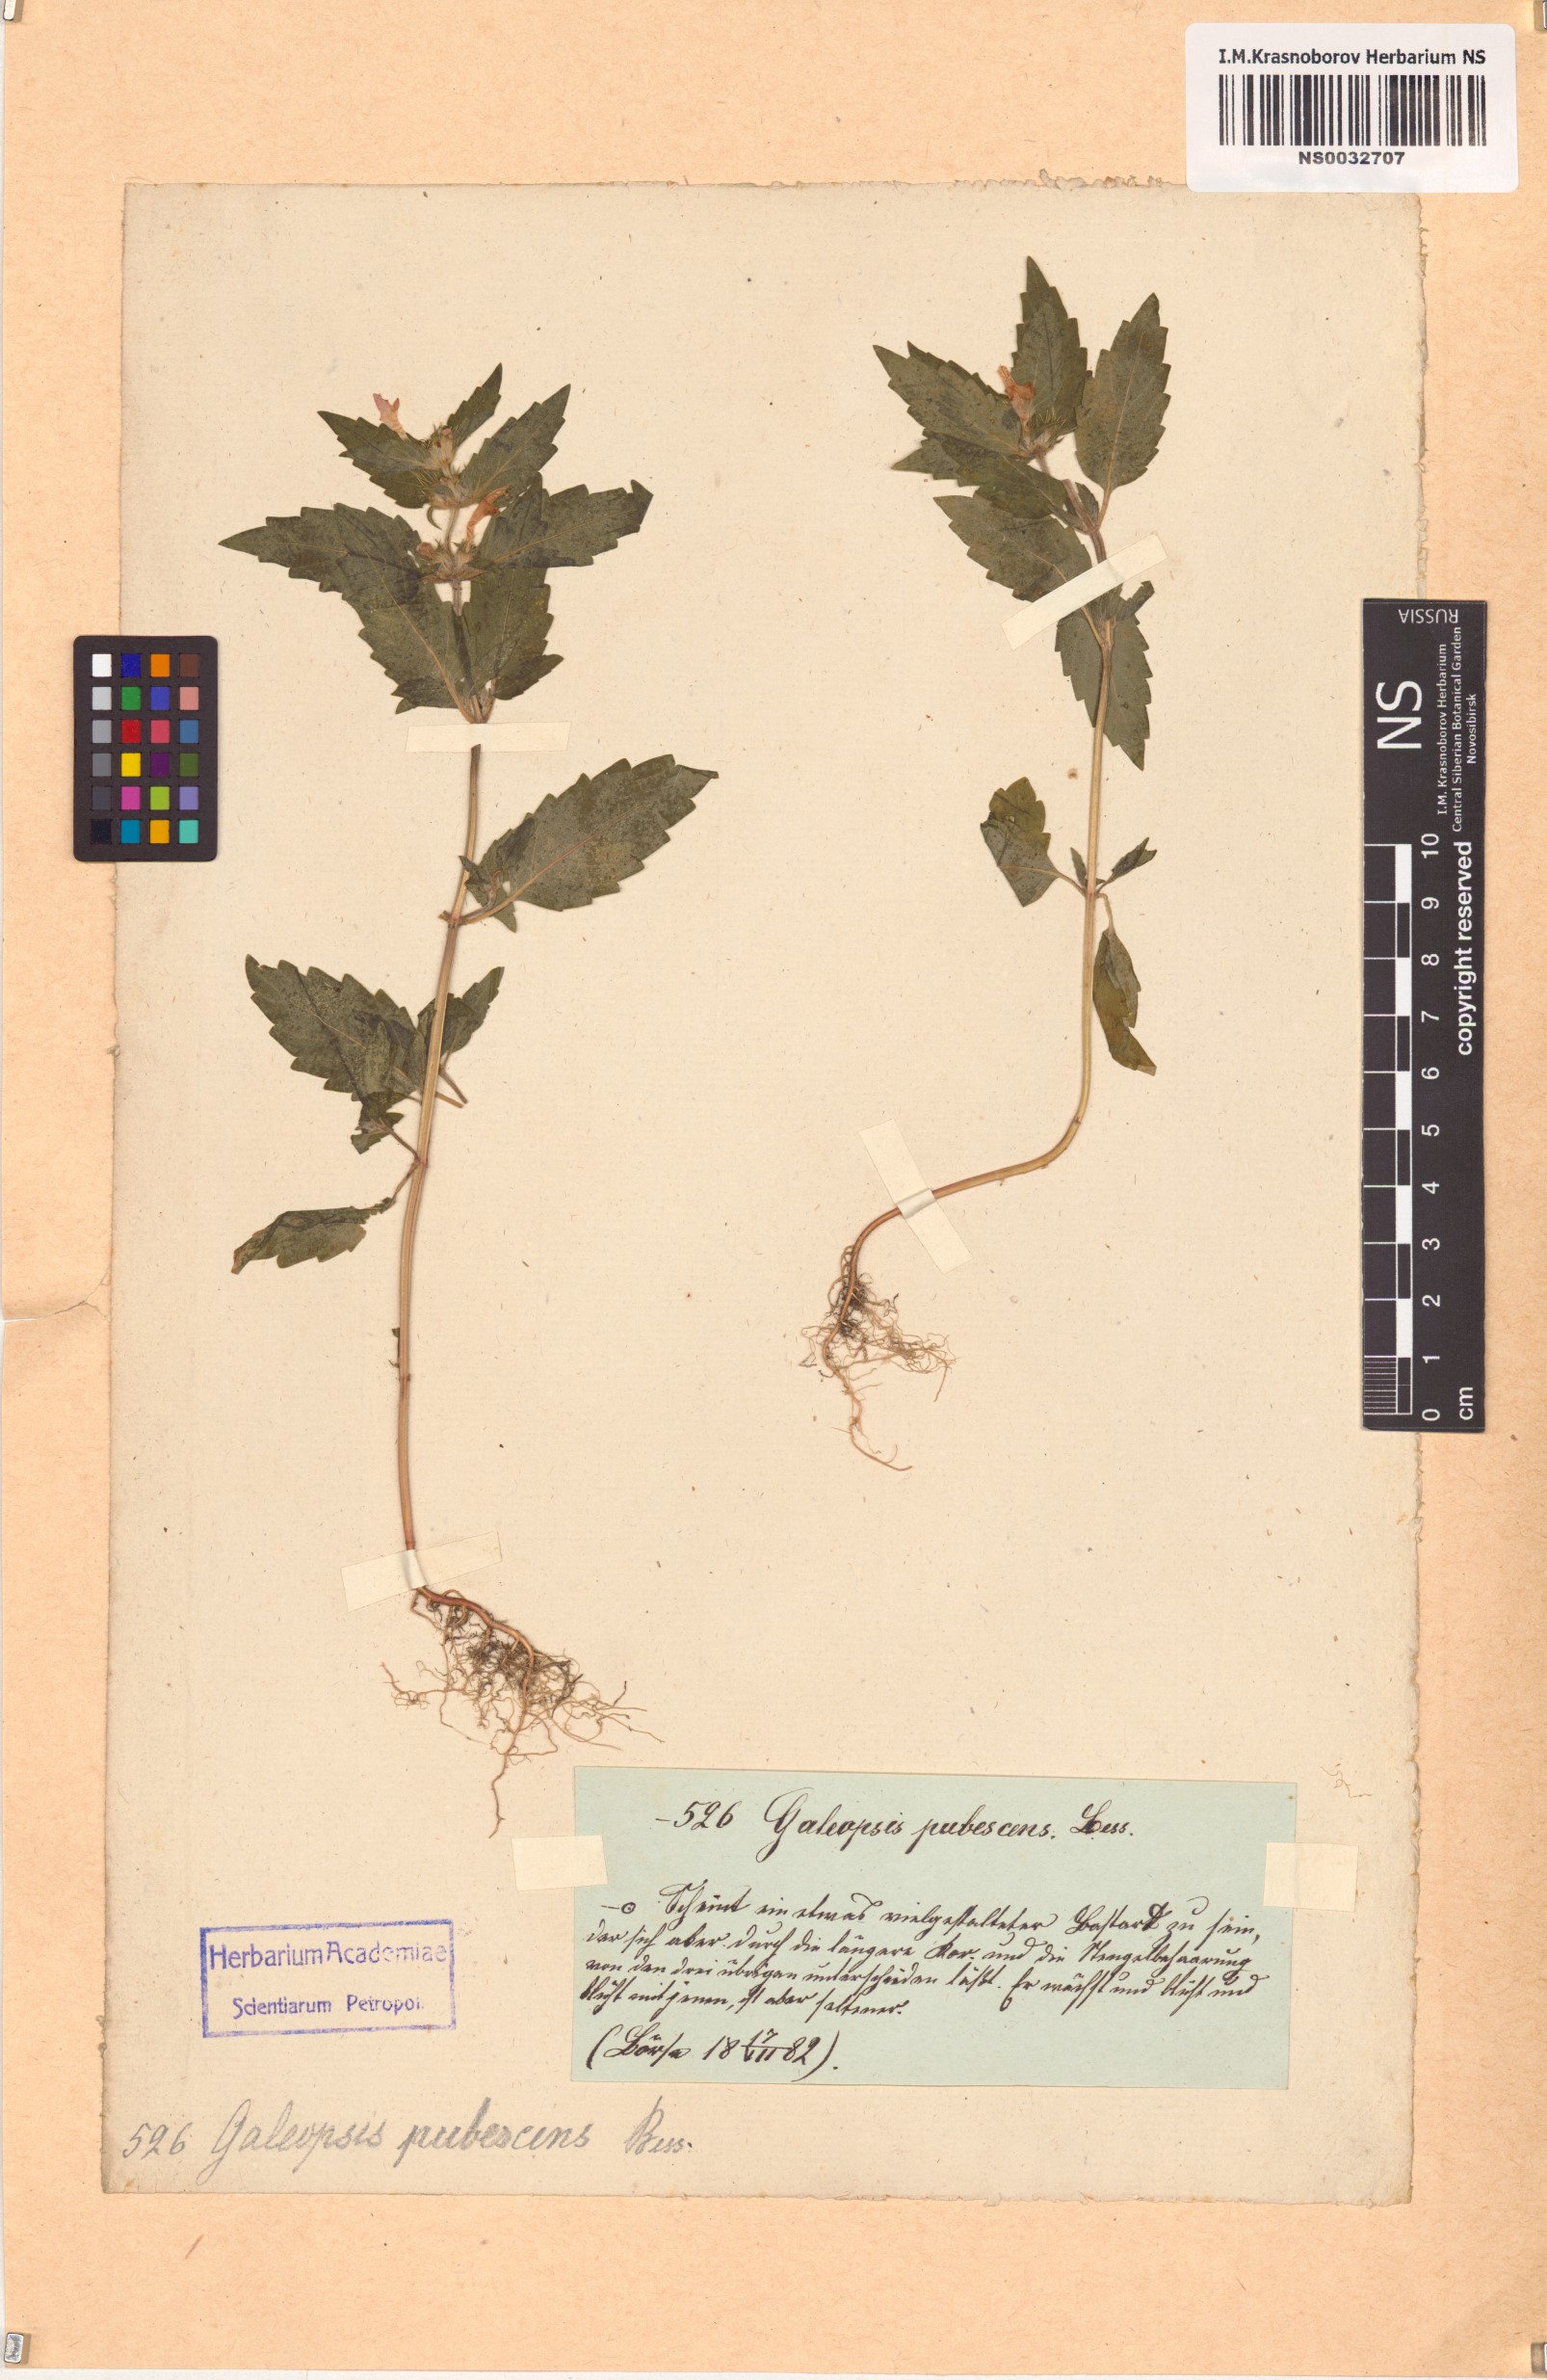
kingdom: Plantae
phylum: Tracheophyta
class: Magnoliopsida
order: Lamiales
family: Lamiaceae
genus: Galeopsis
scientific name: Galeopsis pubescens
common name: Downy hemp-nettle
